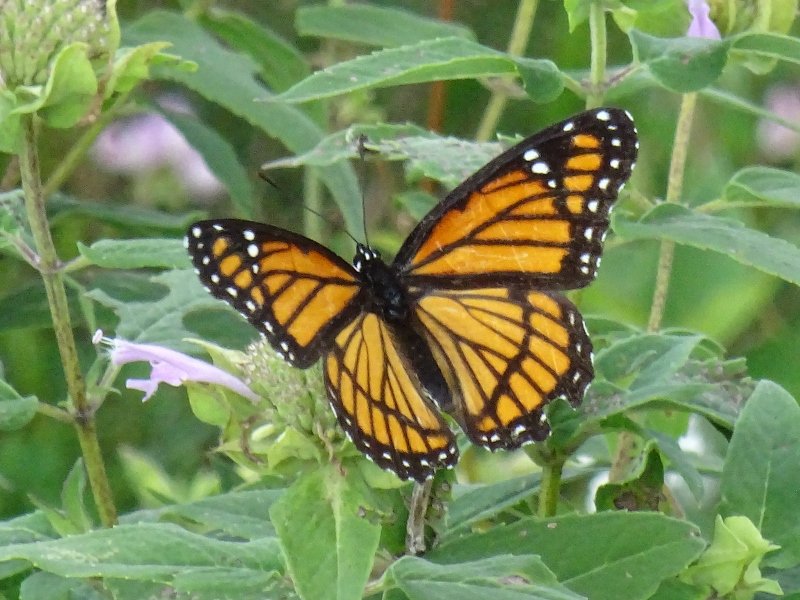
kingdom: Animalia
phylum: Arthropoda
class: Insecta
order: Lepidoptera
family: Nymphalidae
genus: Limenitis
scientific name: Limenitis archippus
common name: Viceroy
